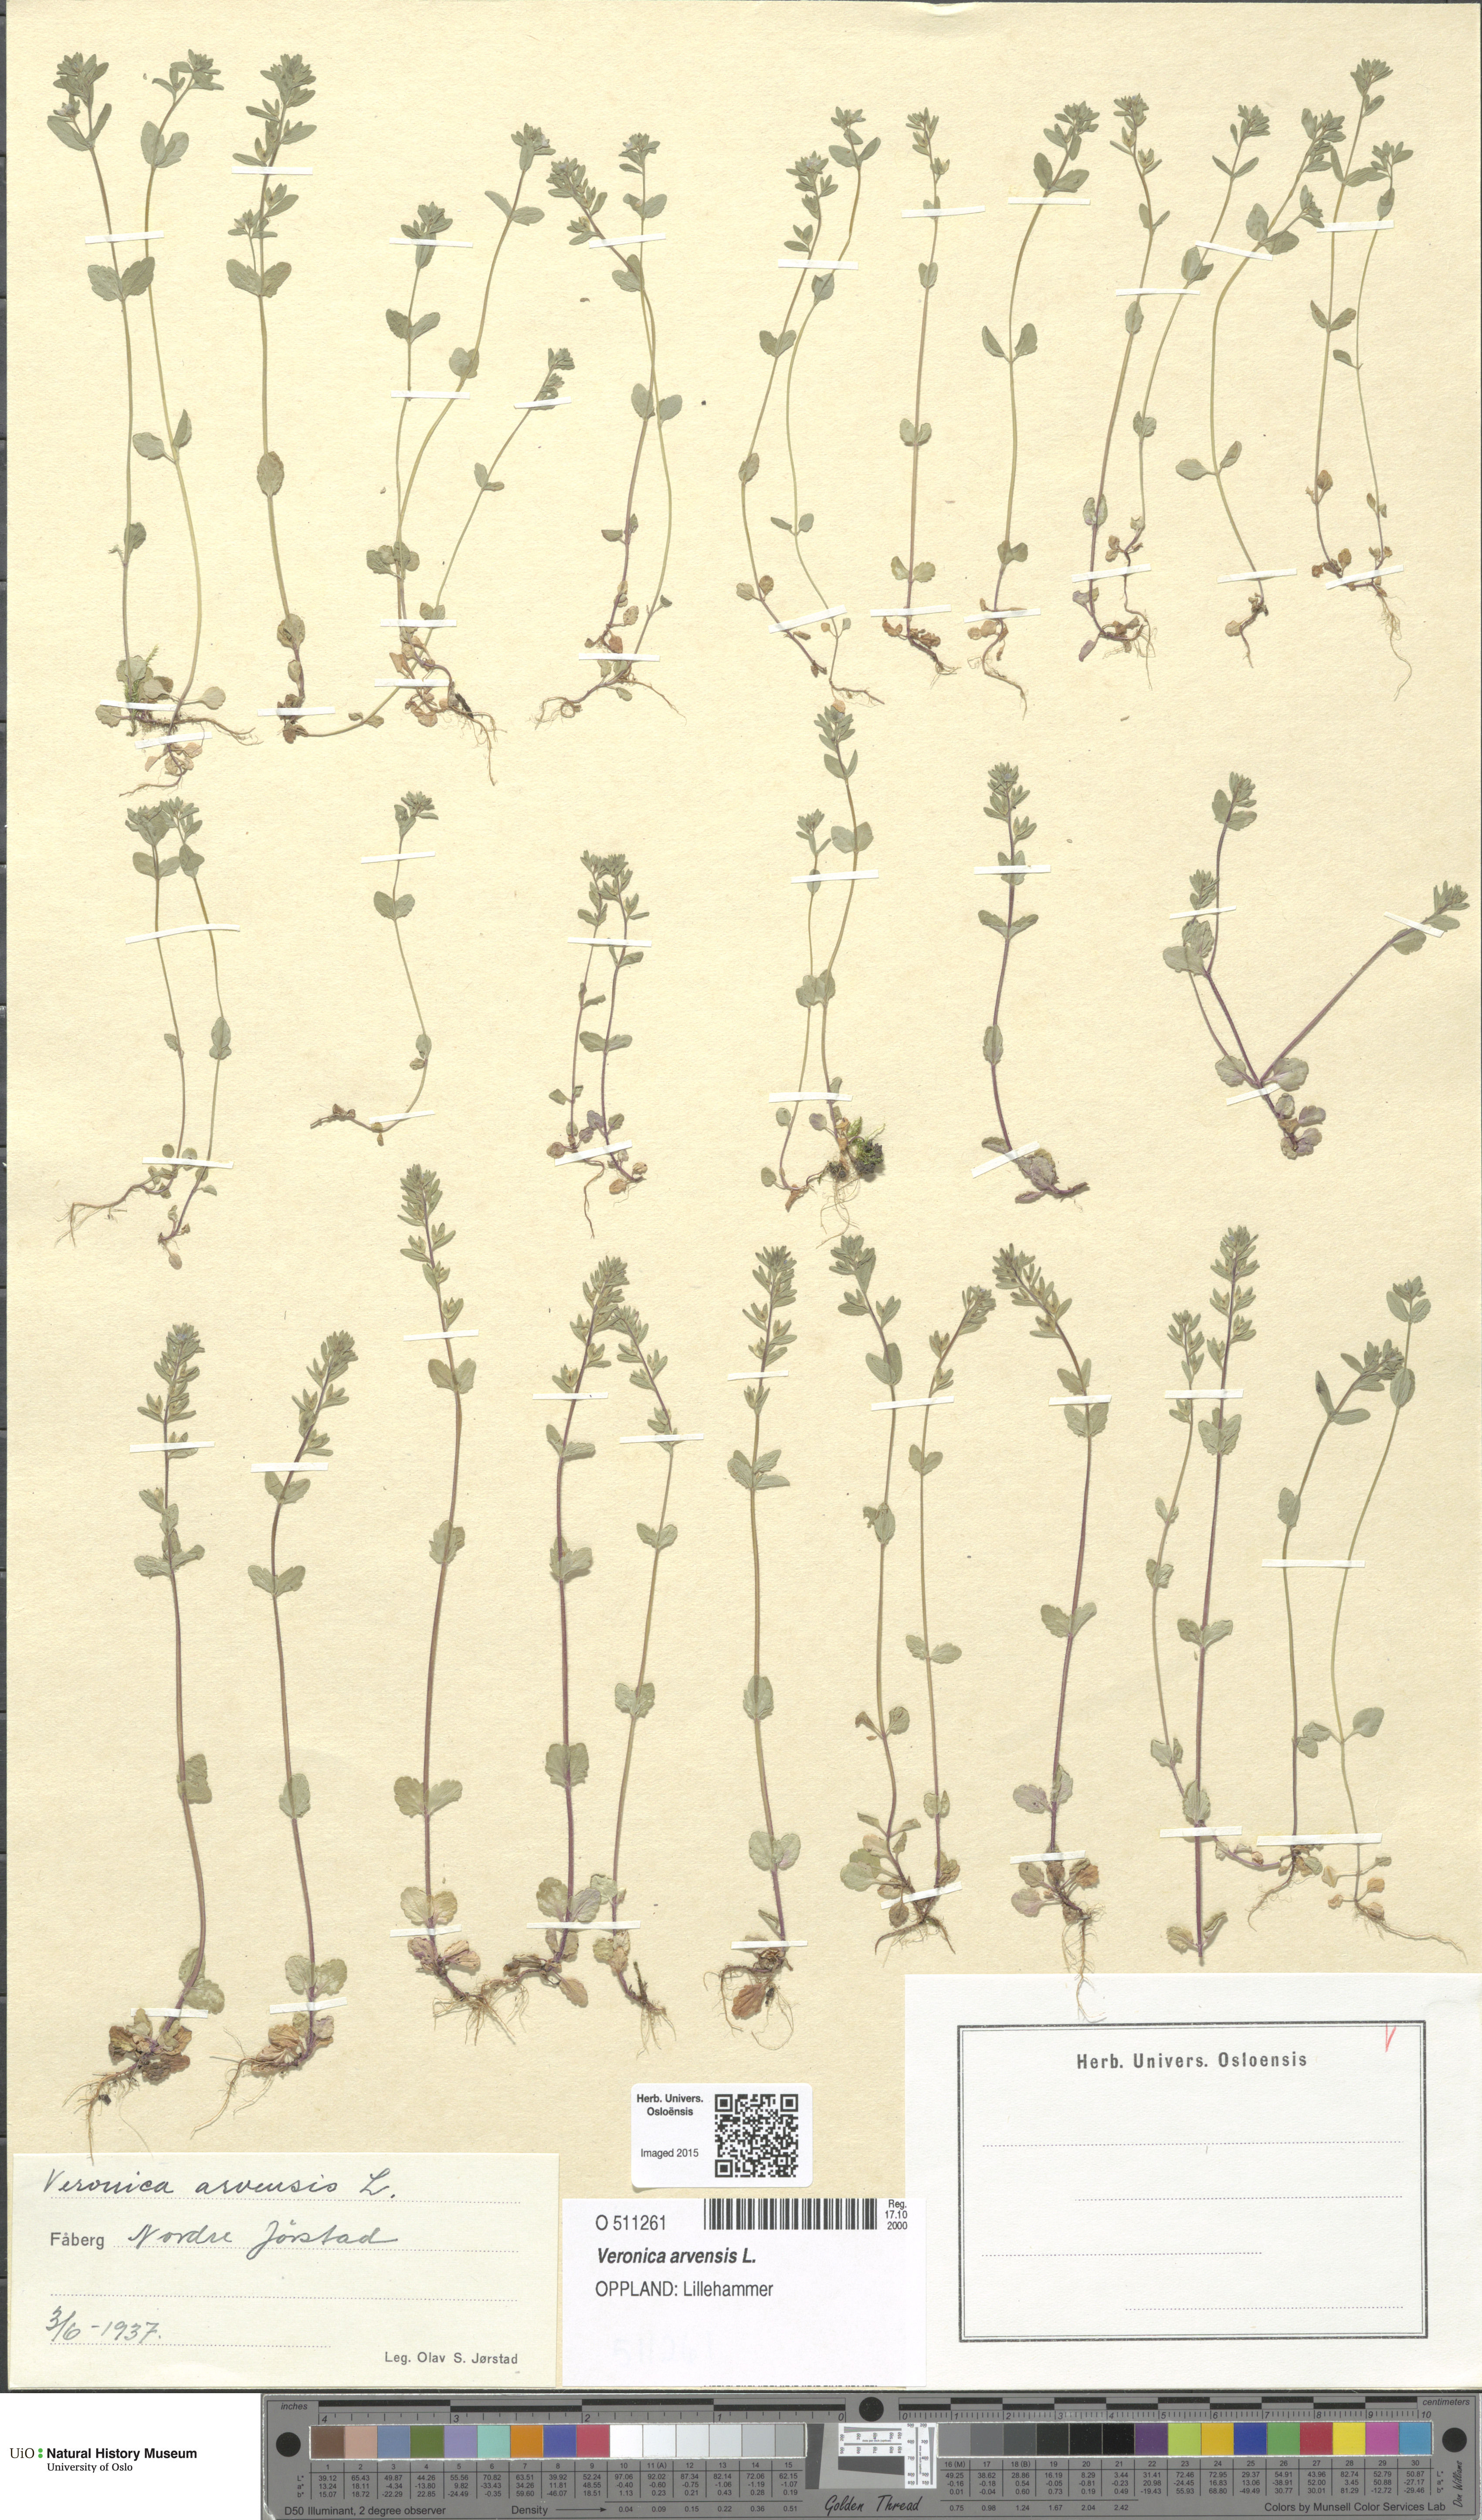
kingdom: Plantae
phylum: Tracheophyta
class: Magnoliopsida
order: Lamiales
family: Plantaginaceae
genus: Veronica
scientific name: Veronica arvensis
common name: Corn speedwell
